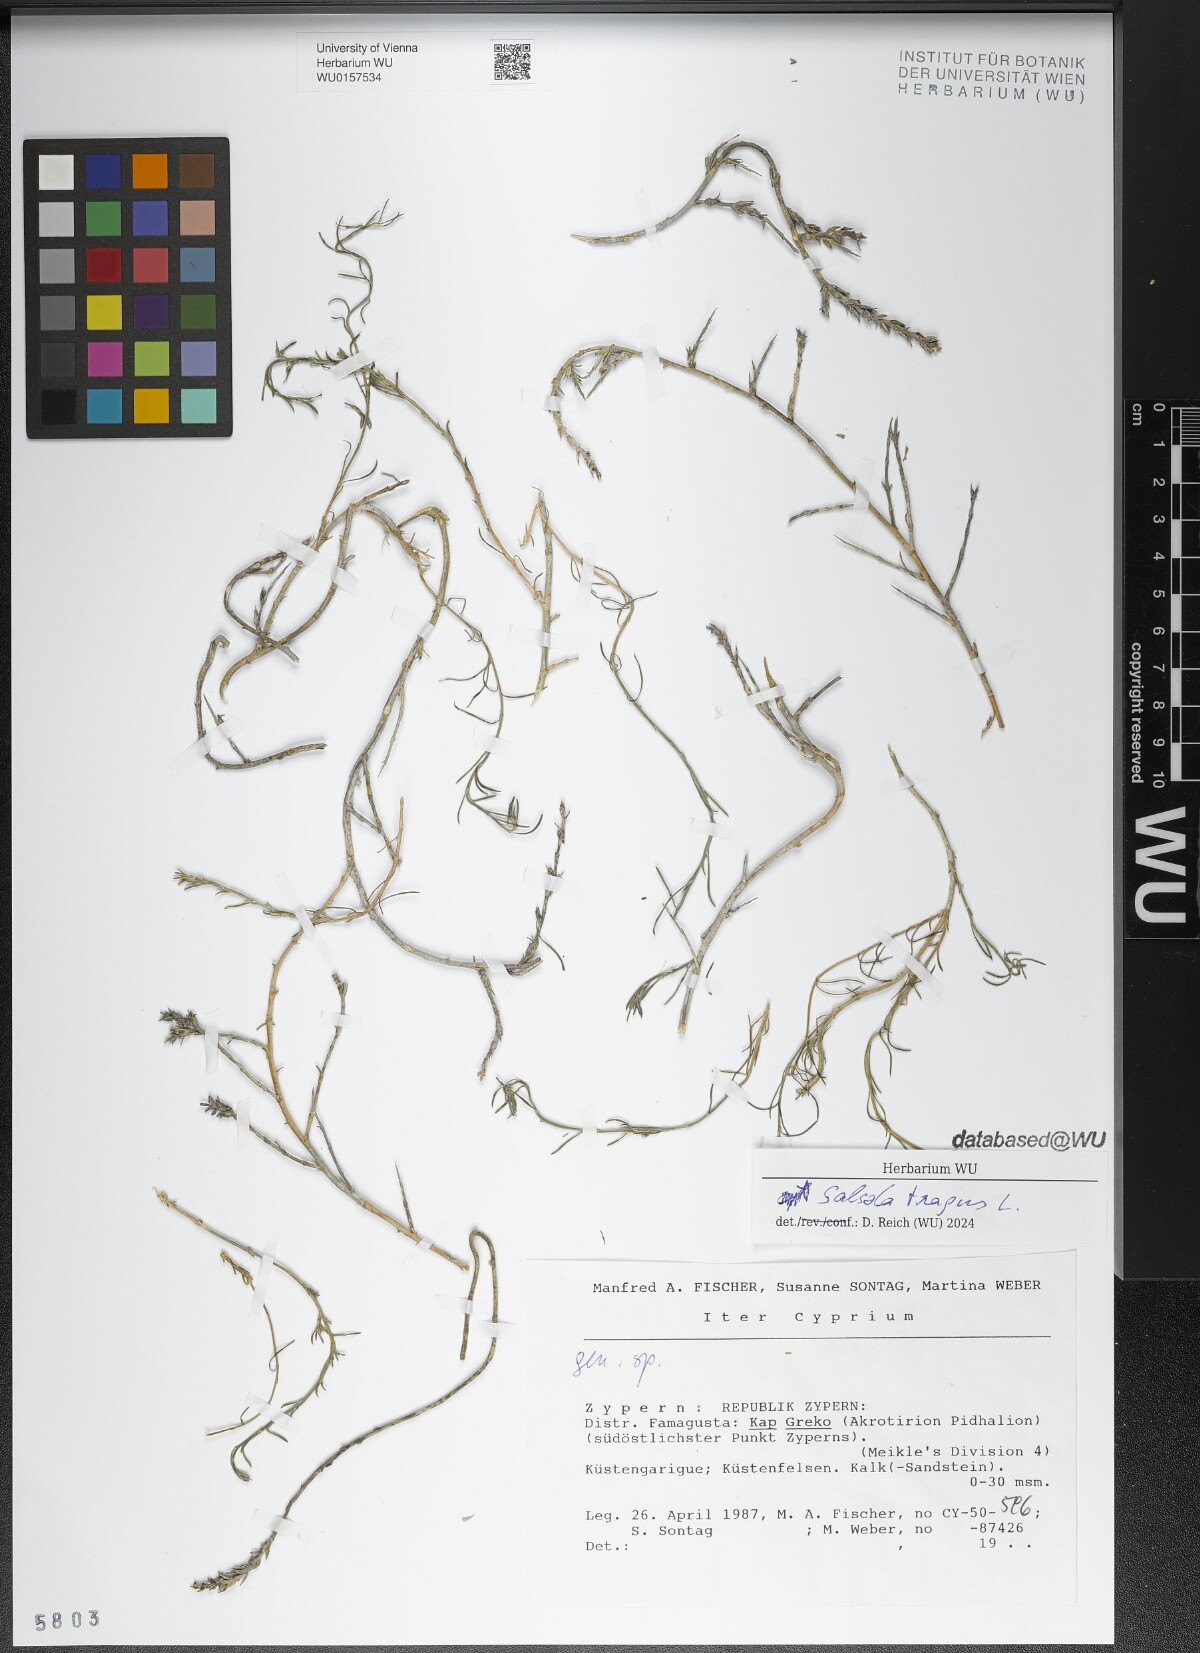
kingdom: Plantae
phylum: Tracheophyta
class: Magnoliopsida
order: Caryophyllales
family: Amaranthaceae
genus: Salsola
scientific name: Salsola tragus
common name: Prickly russian thistle
